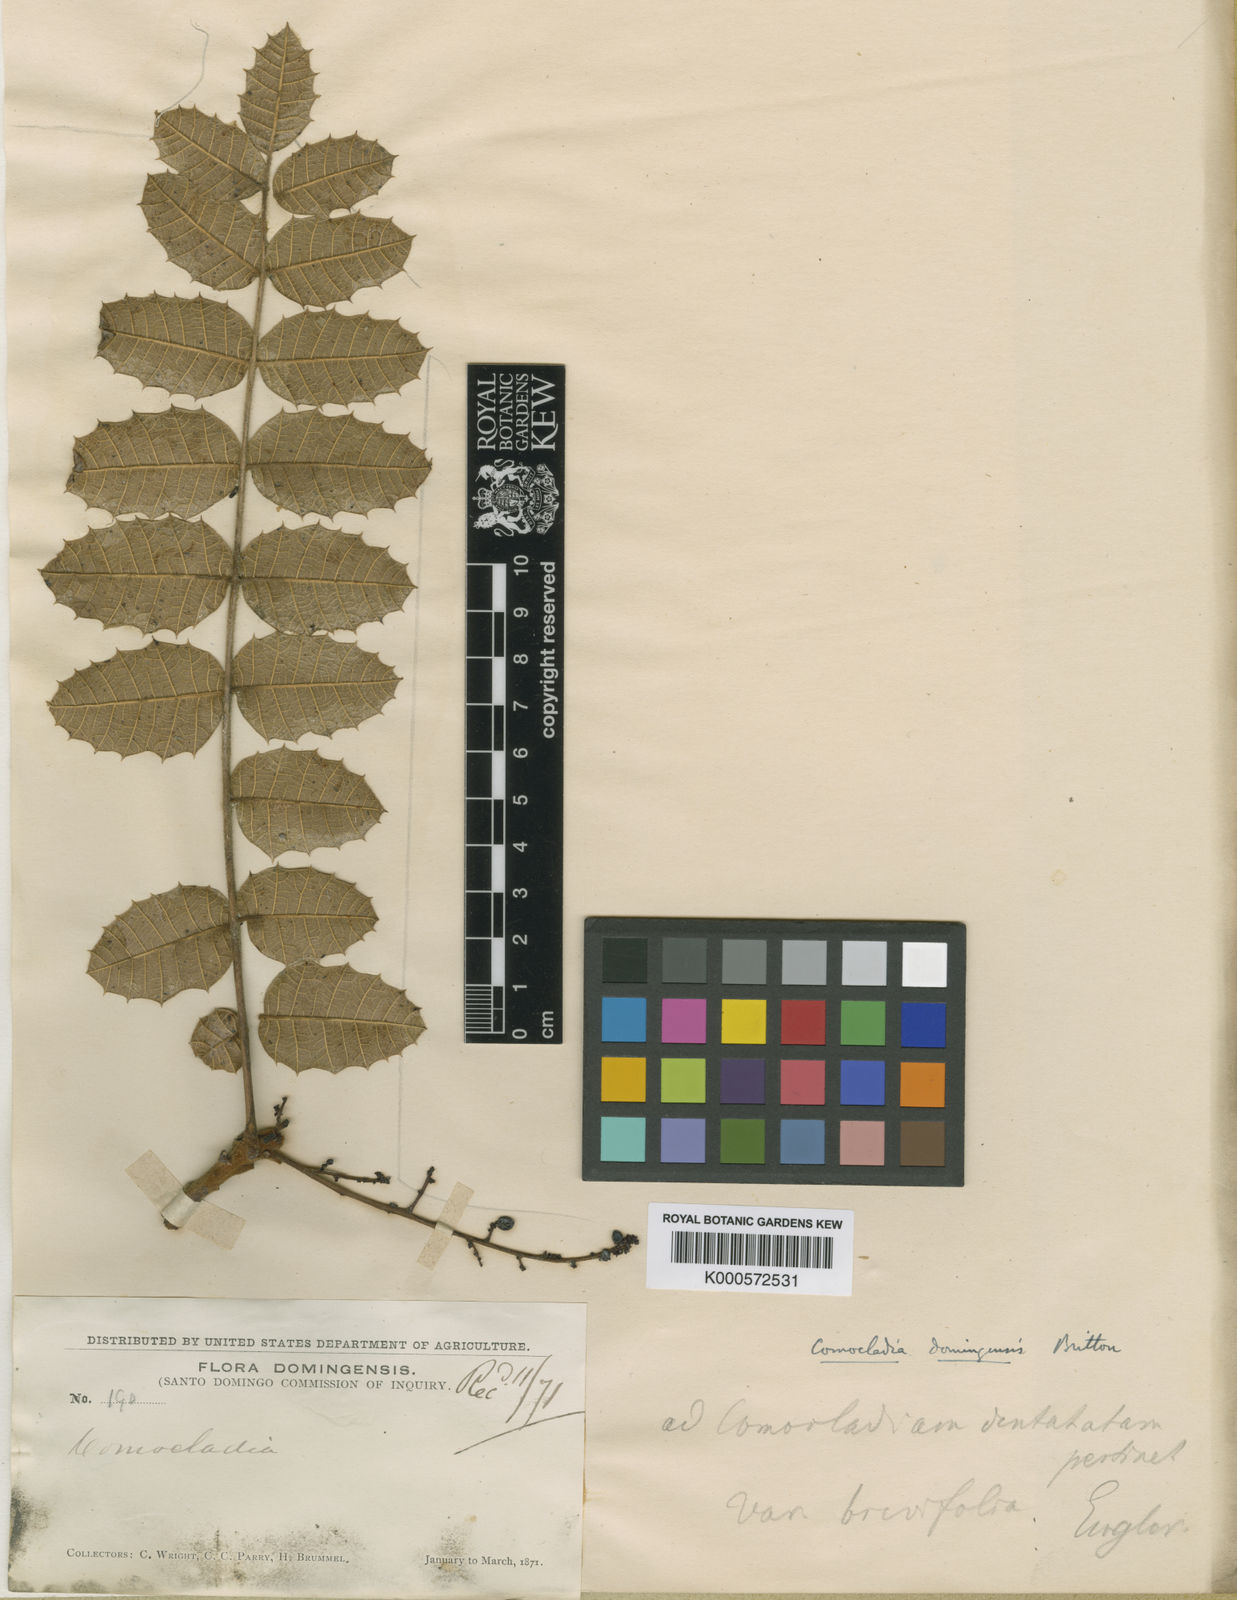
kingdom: Plantae
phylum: Tracheophyta
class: Magnoliopsida
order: Sapindales
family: Anacardiaceae
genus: Comocladia
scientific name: Comocladia domingensis
